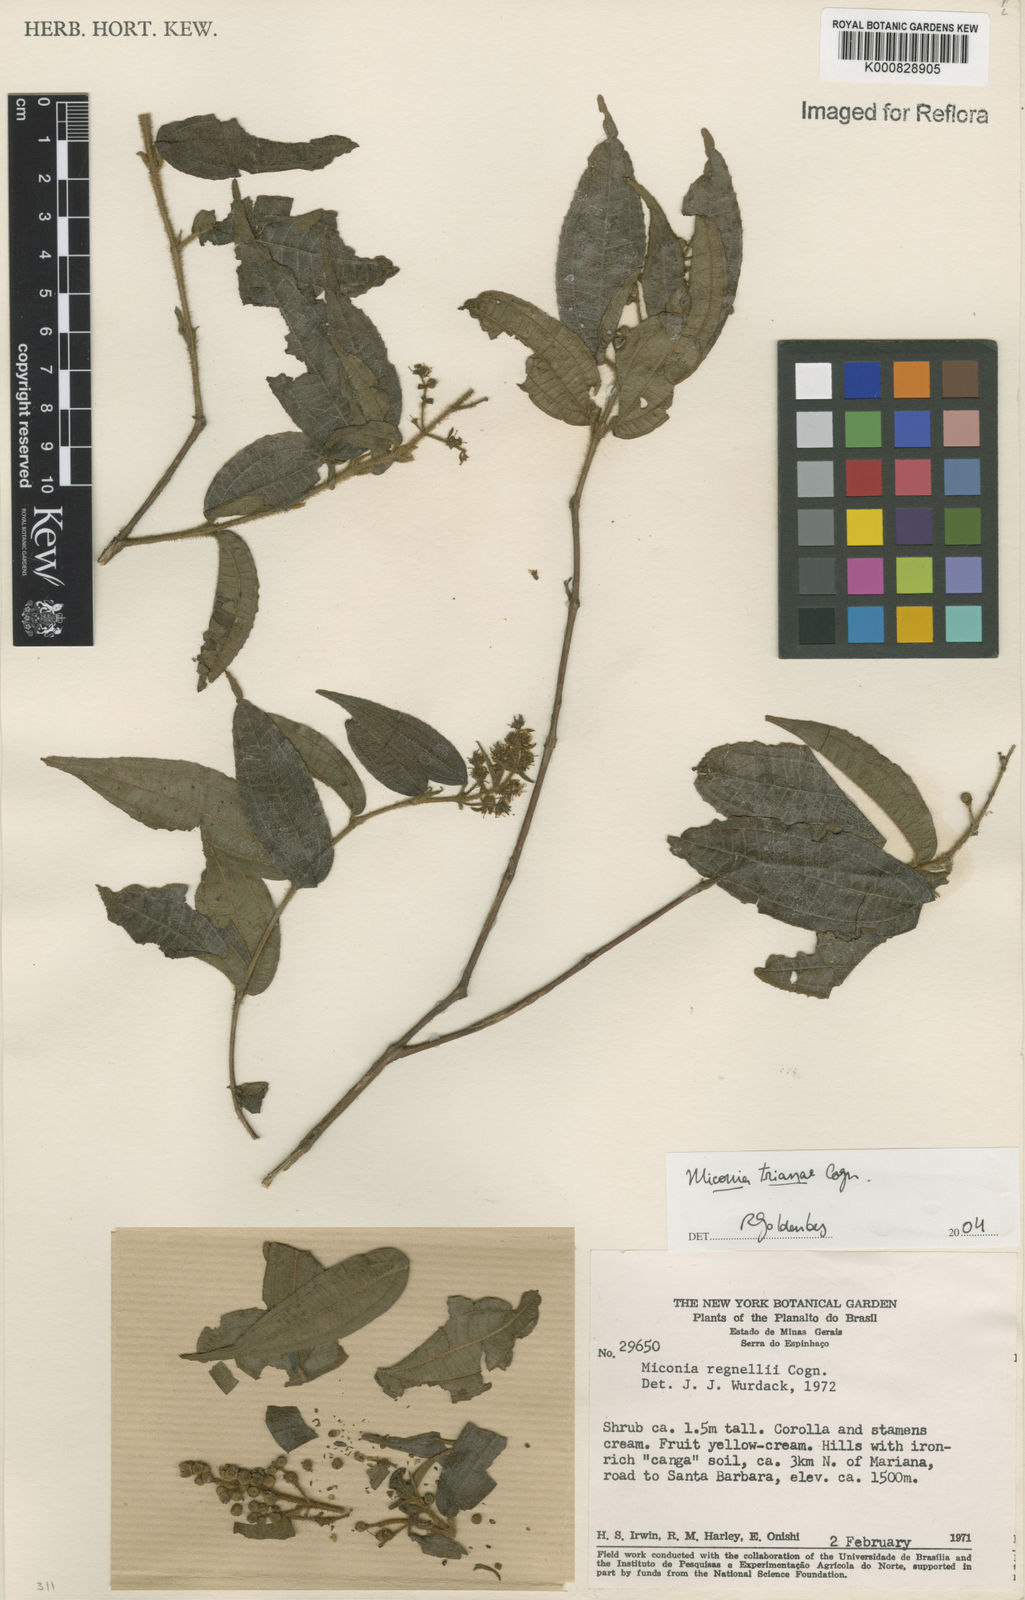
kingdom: Plantae
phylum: Tracheophyta
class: Magnoliopsida
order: Myrtales
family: Melastomataceae
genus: Miconia
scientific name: Miconia trianae
